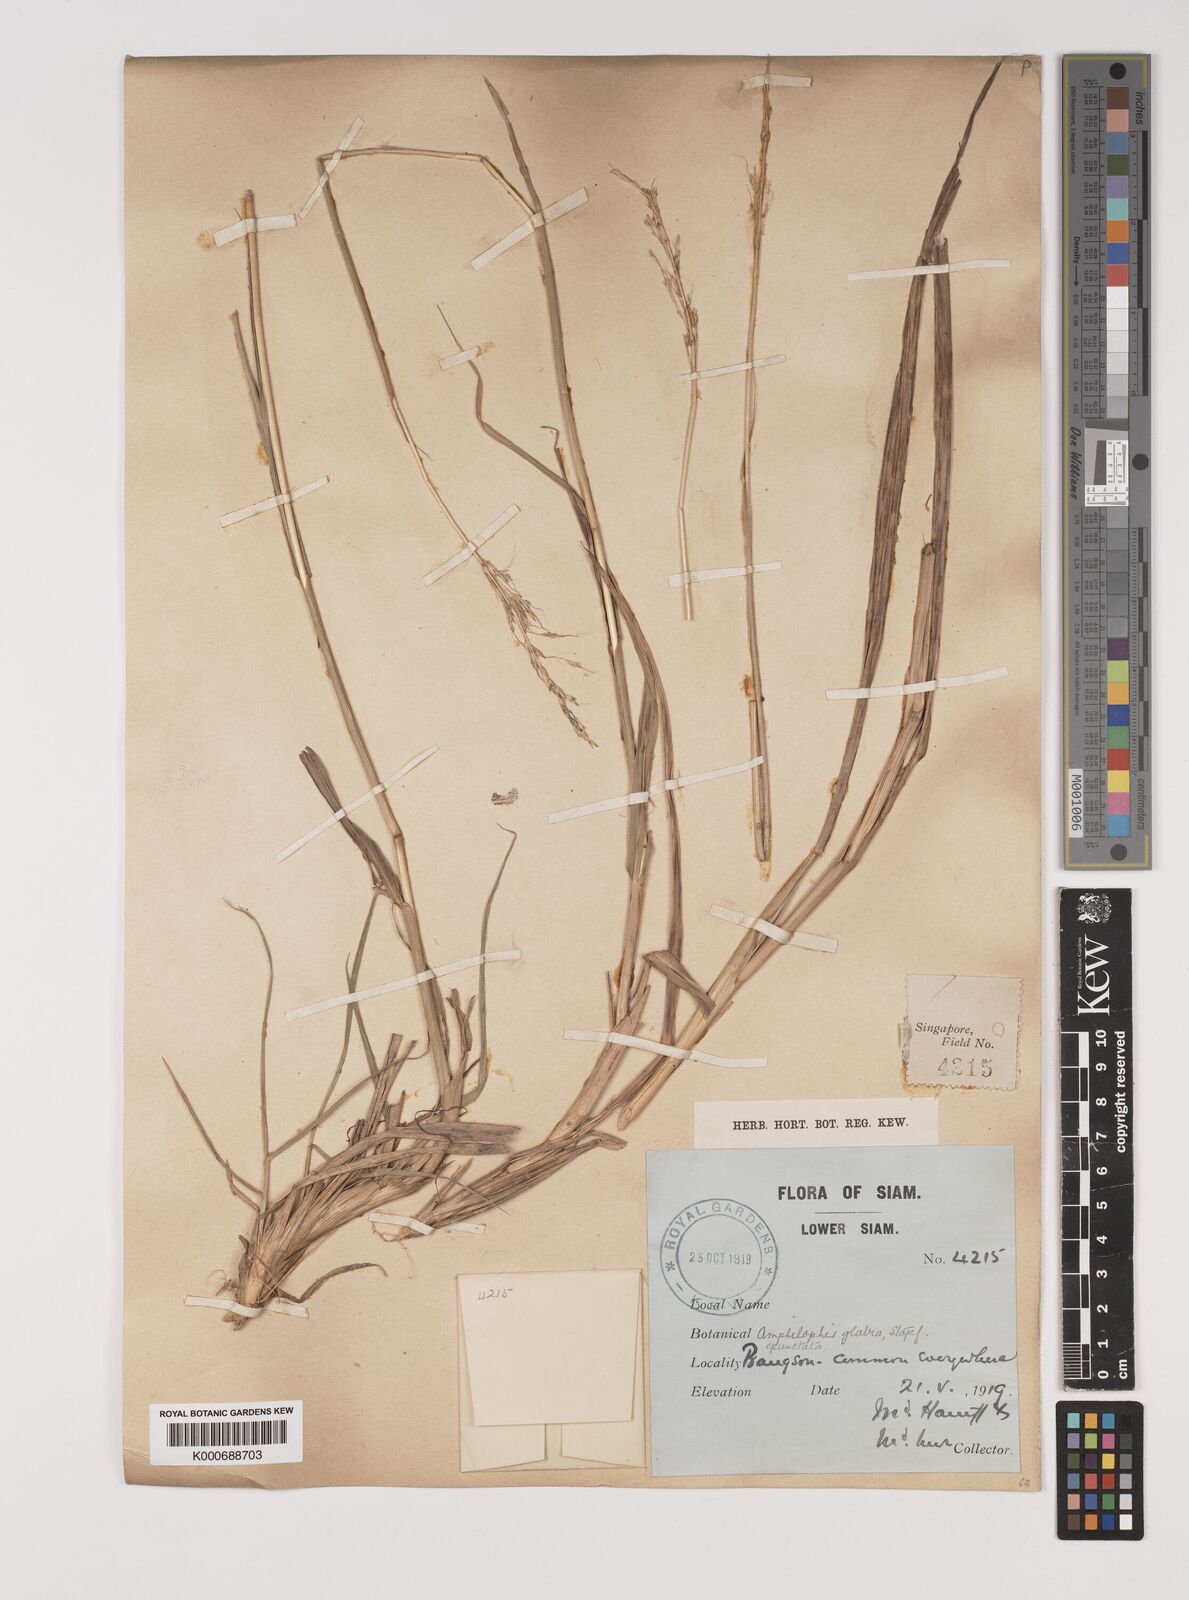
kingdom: Plantae
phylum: Tracheophyta
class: Liliopsida
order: Poales
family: Poaceae
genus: Bothriochloa
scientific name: Bothriochloa bladhii
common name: Caucasian bluestem
